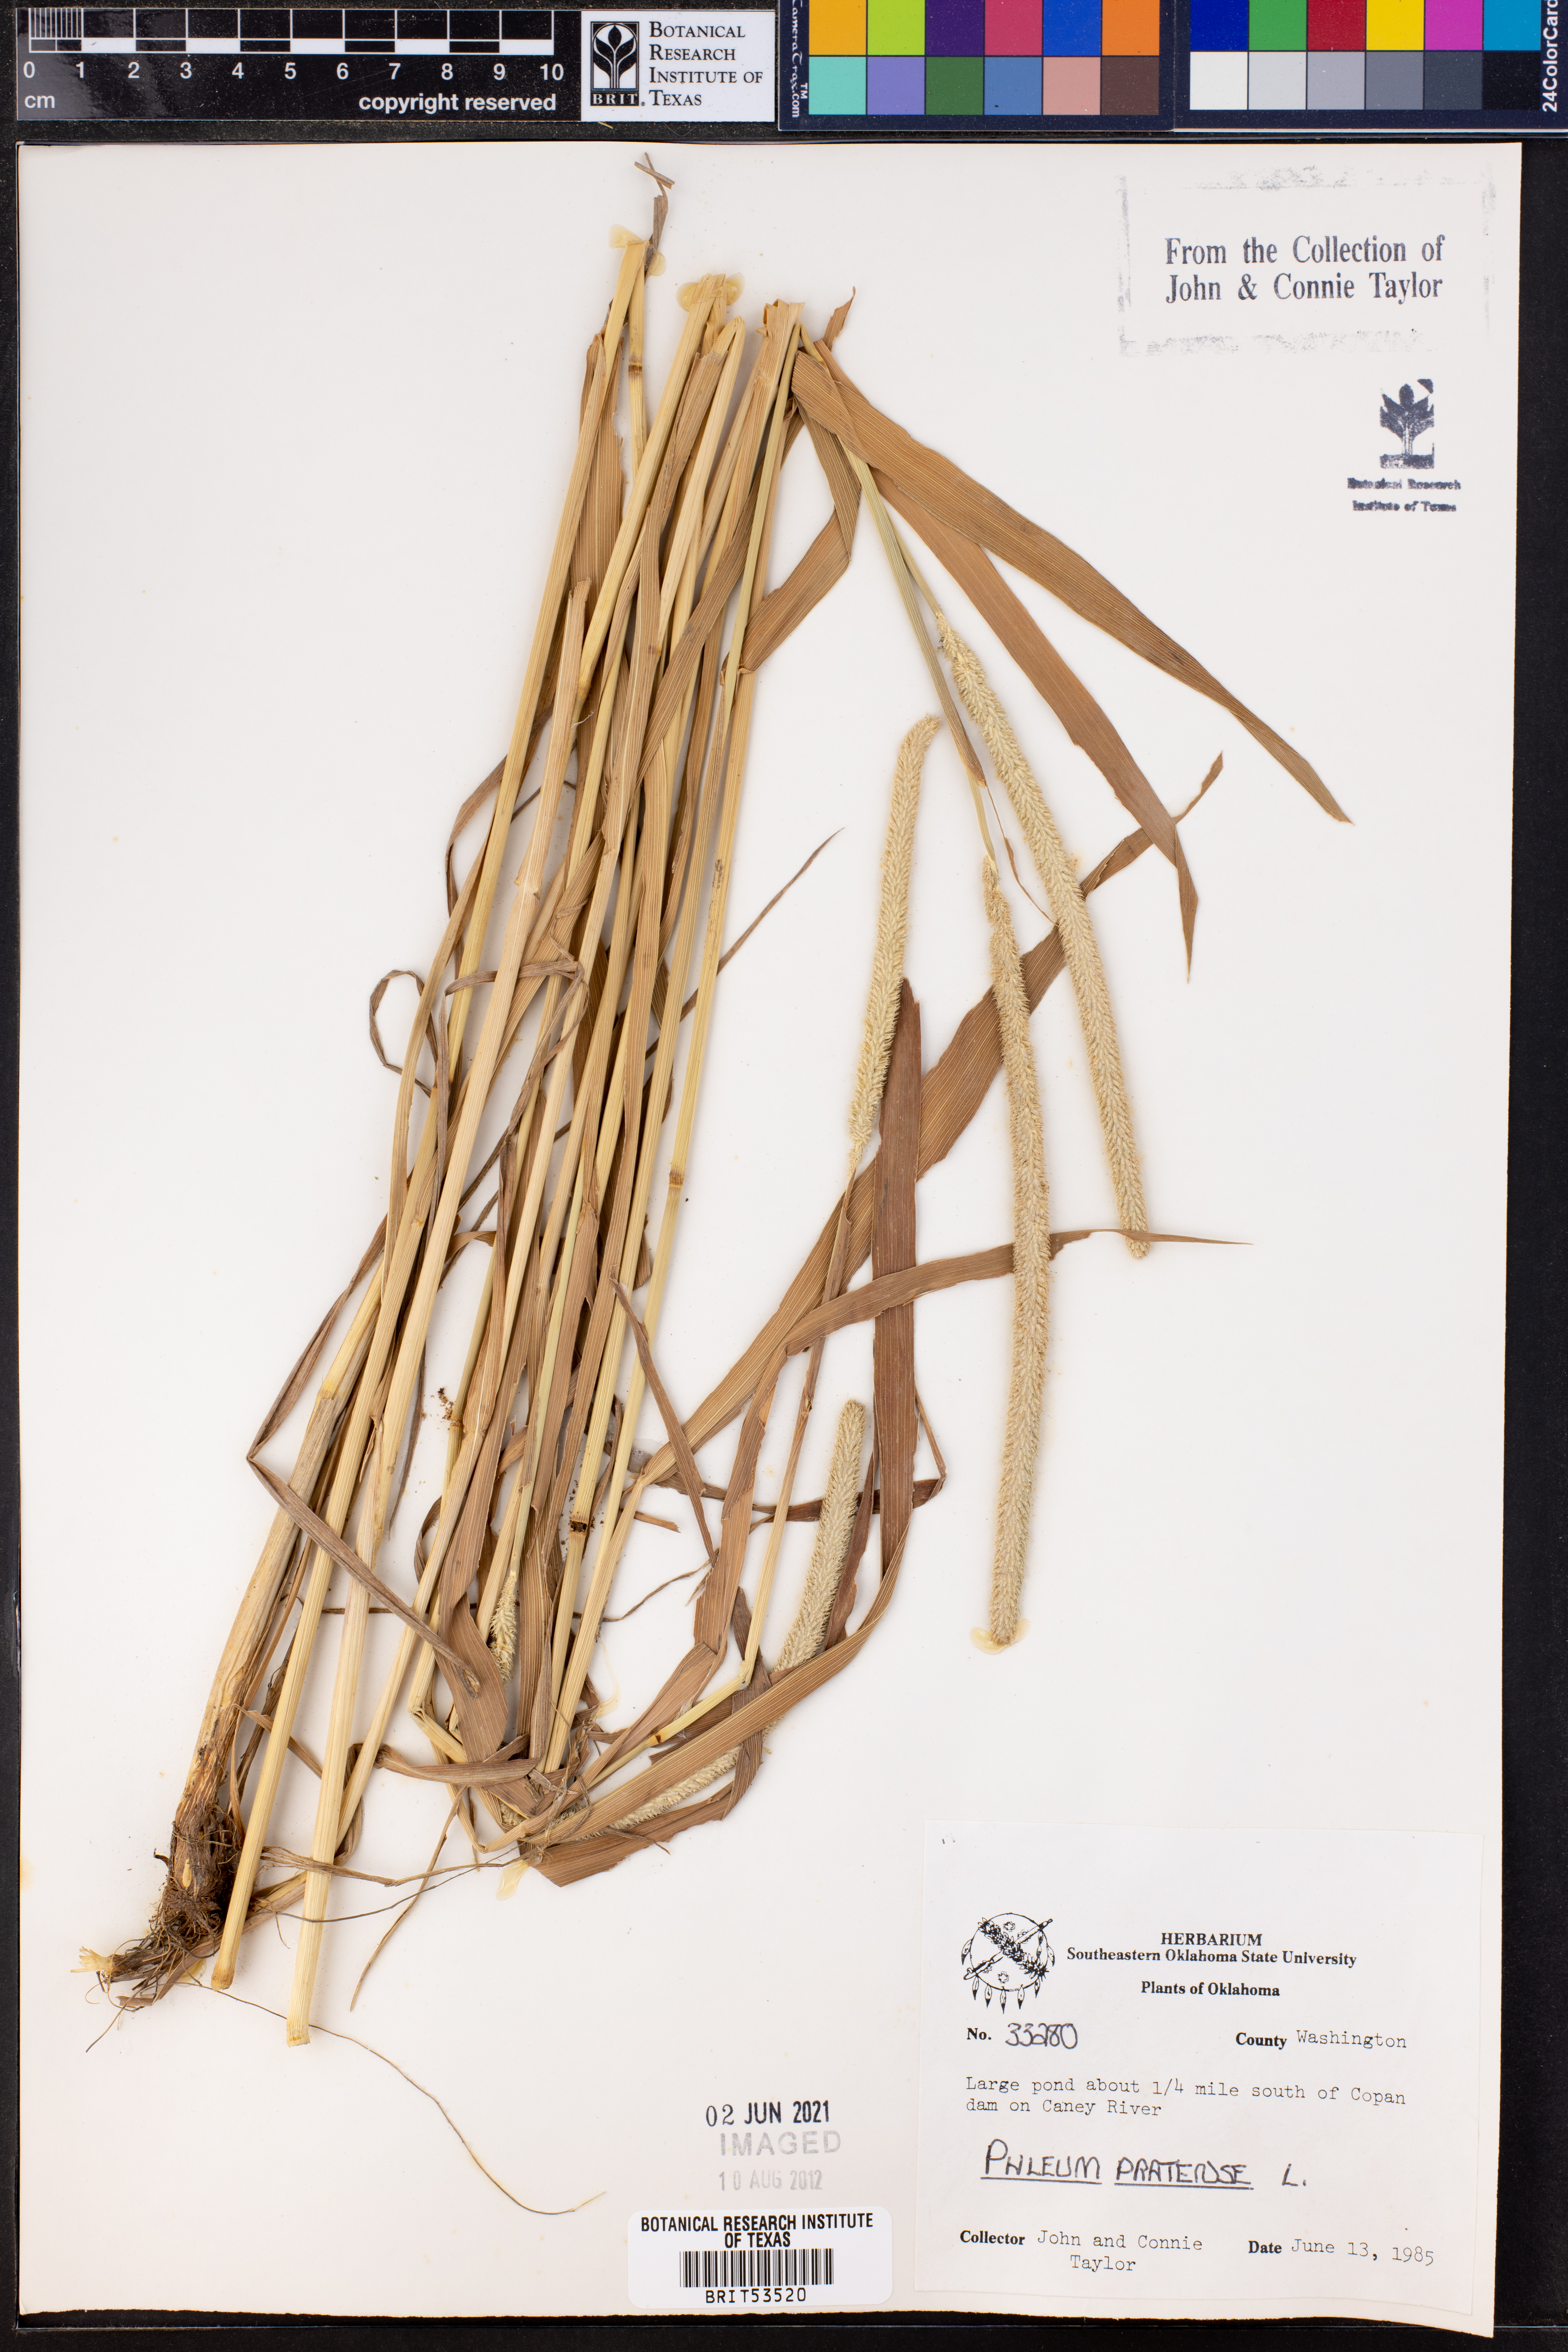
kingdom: Plantae
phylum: Tracheophyta
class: Liliopsida
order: Poales
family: Poaceae
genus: Phleum
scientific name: Phleum pratense
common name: Timothy grass
